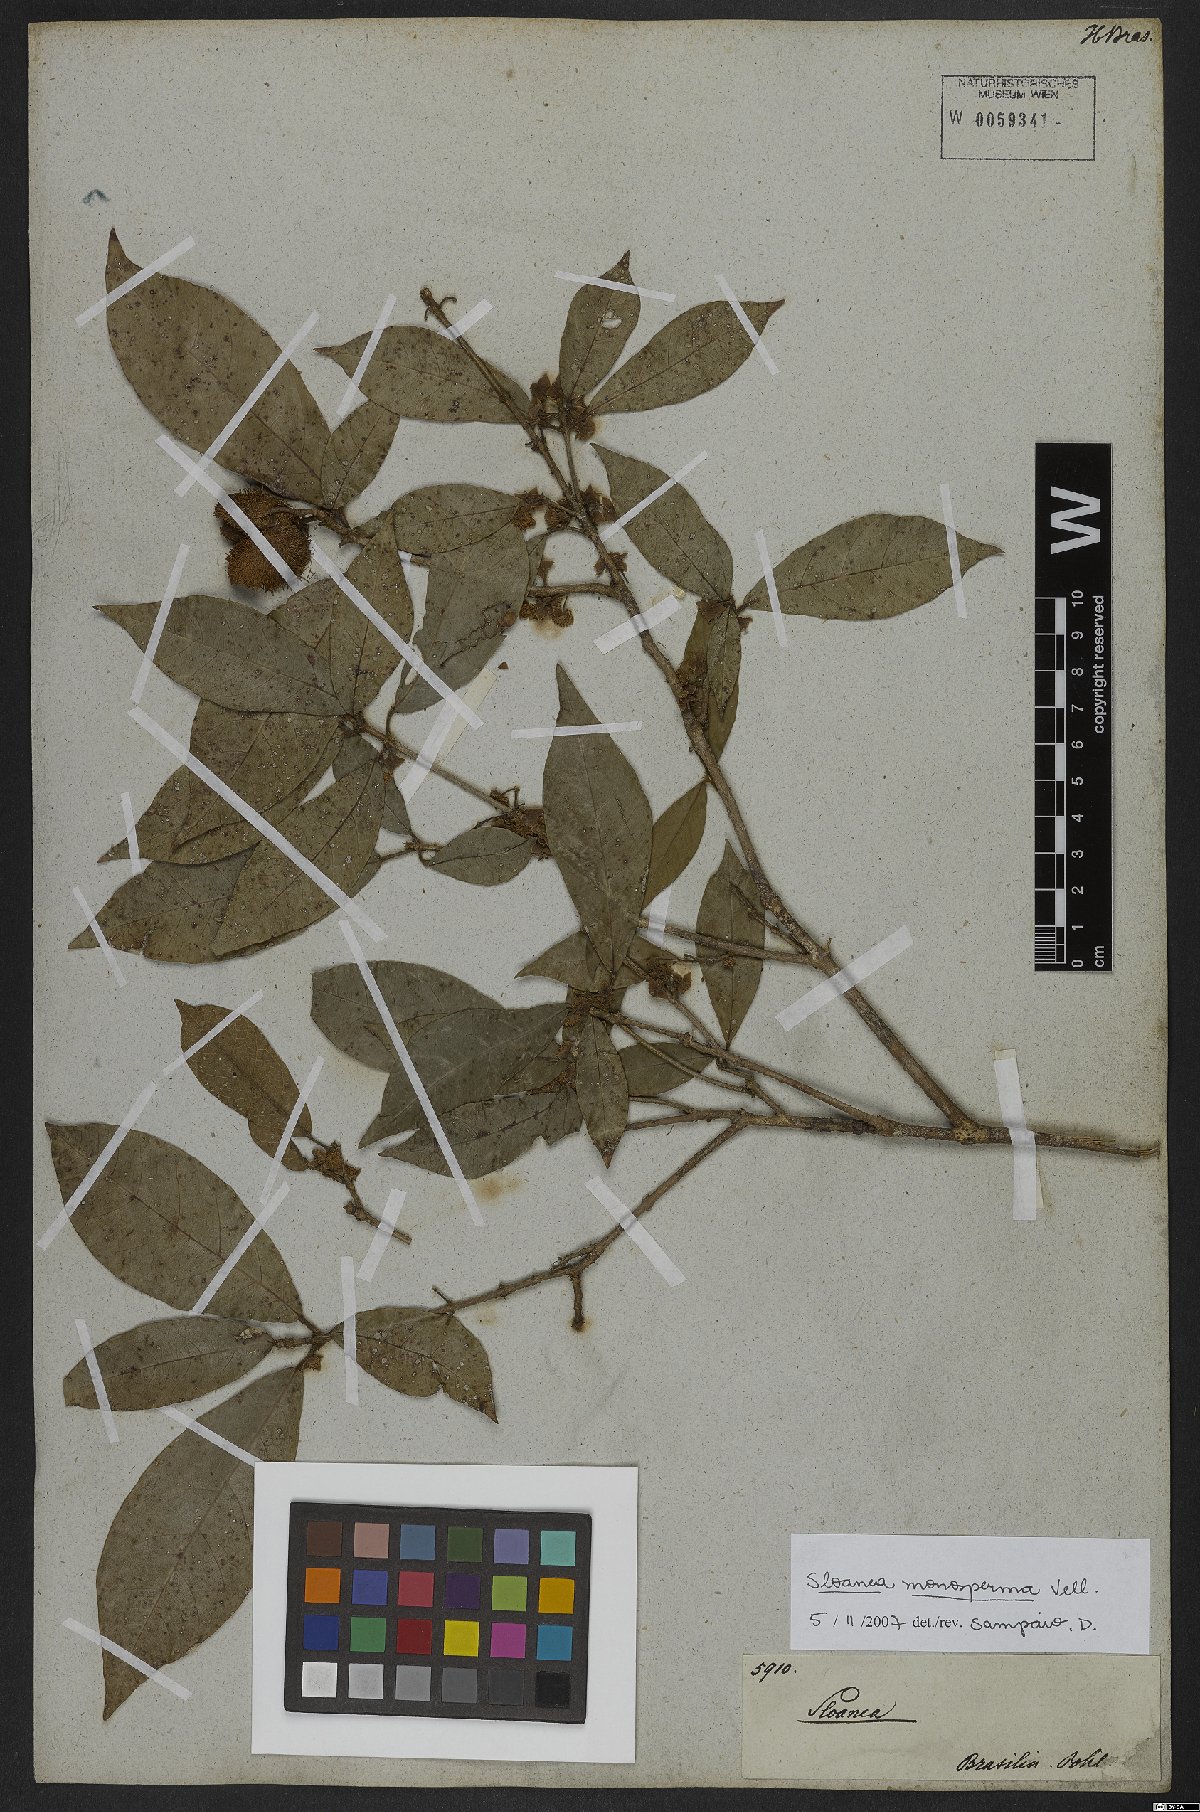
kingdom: Plantae
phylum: Tracheophyta
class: Magnoliopsida
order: Oxalidales
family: Elaeocarpaceae
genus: Sloanea
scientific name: Sloanea hirsuta
